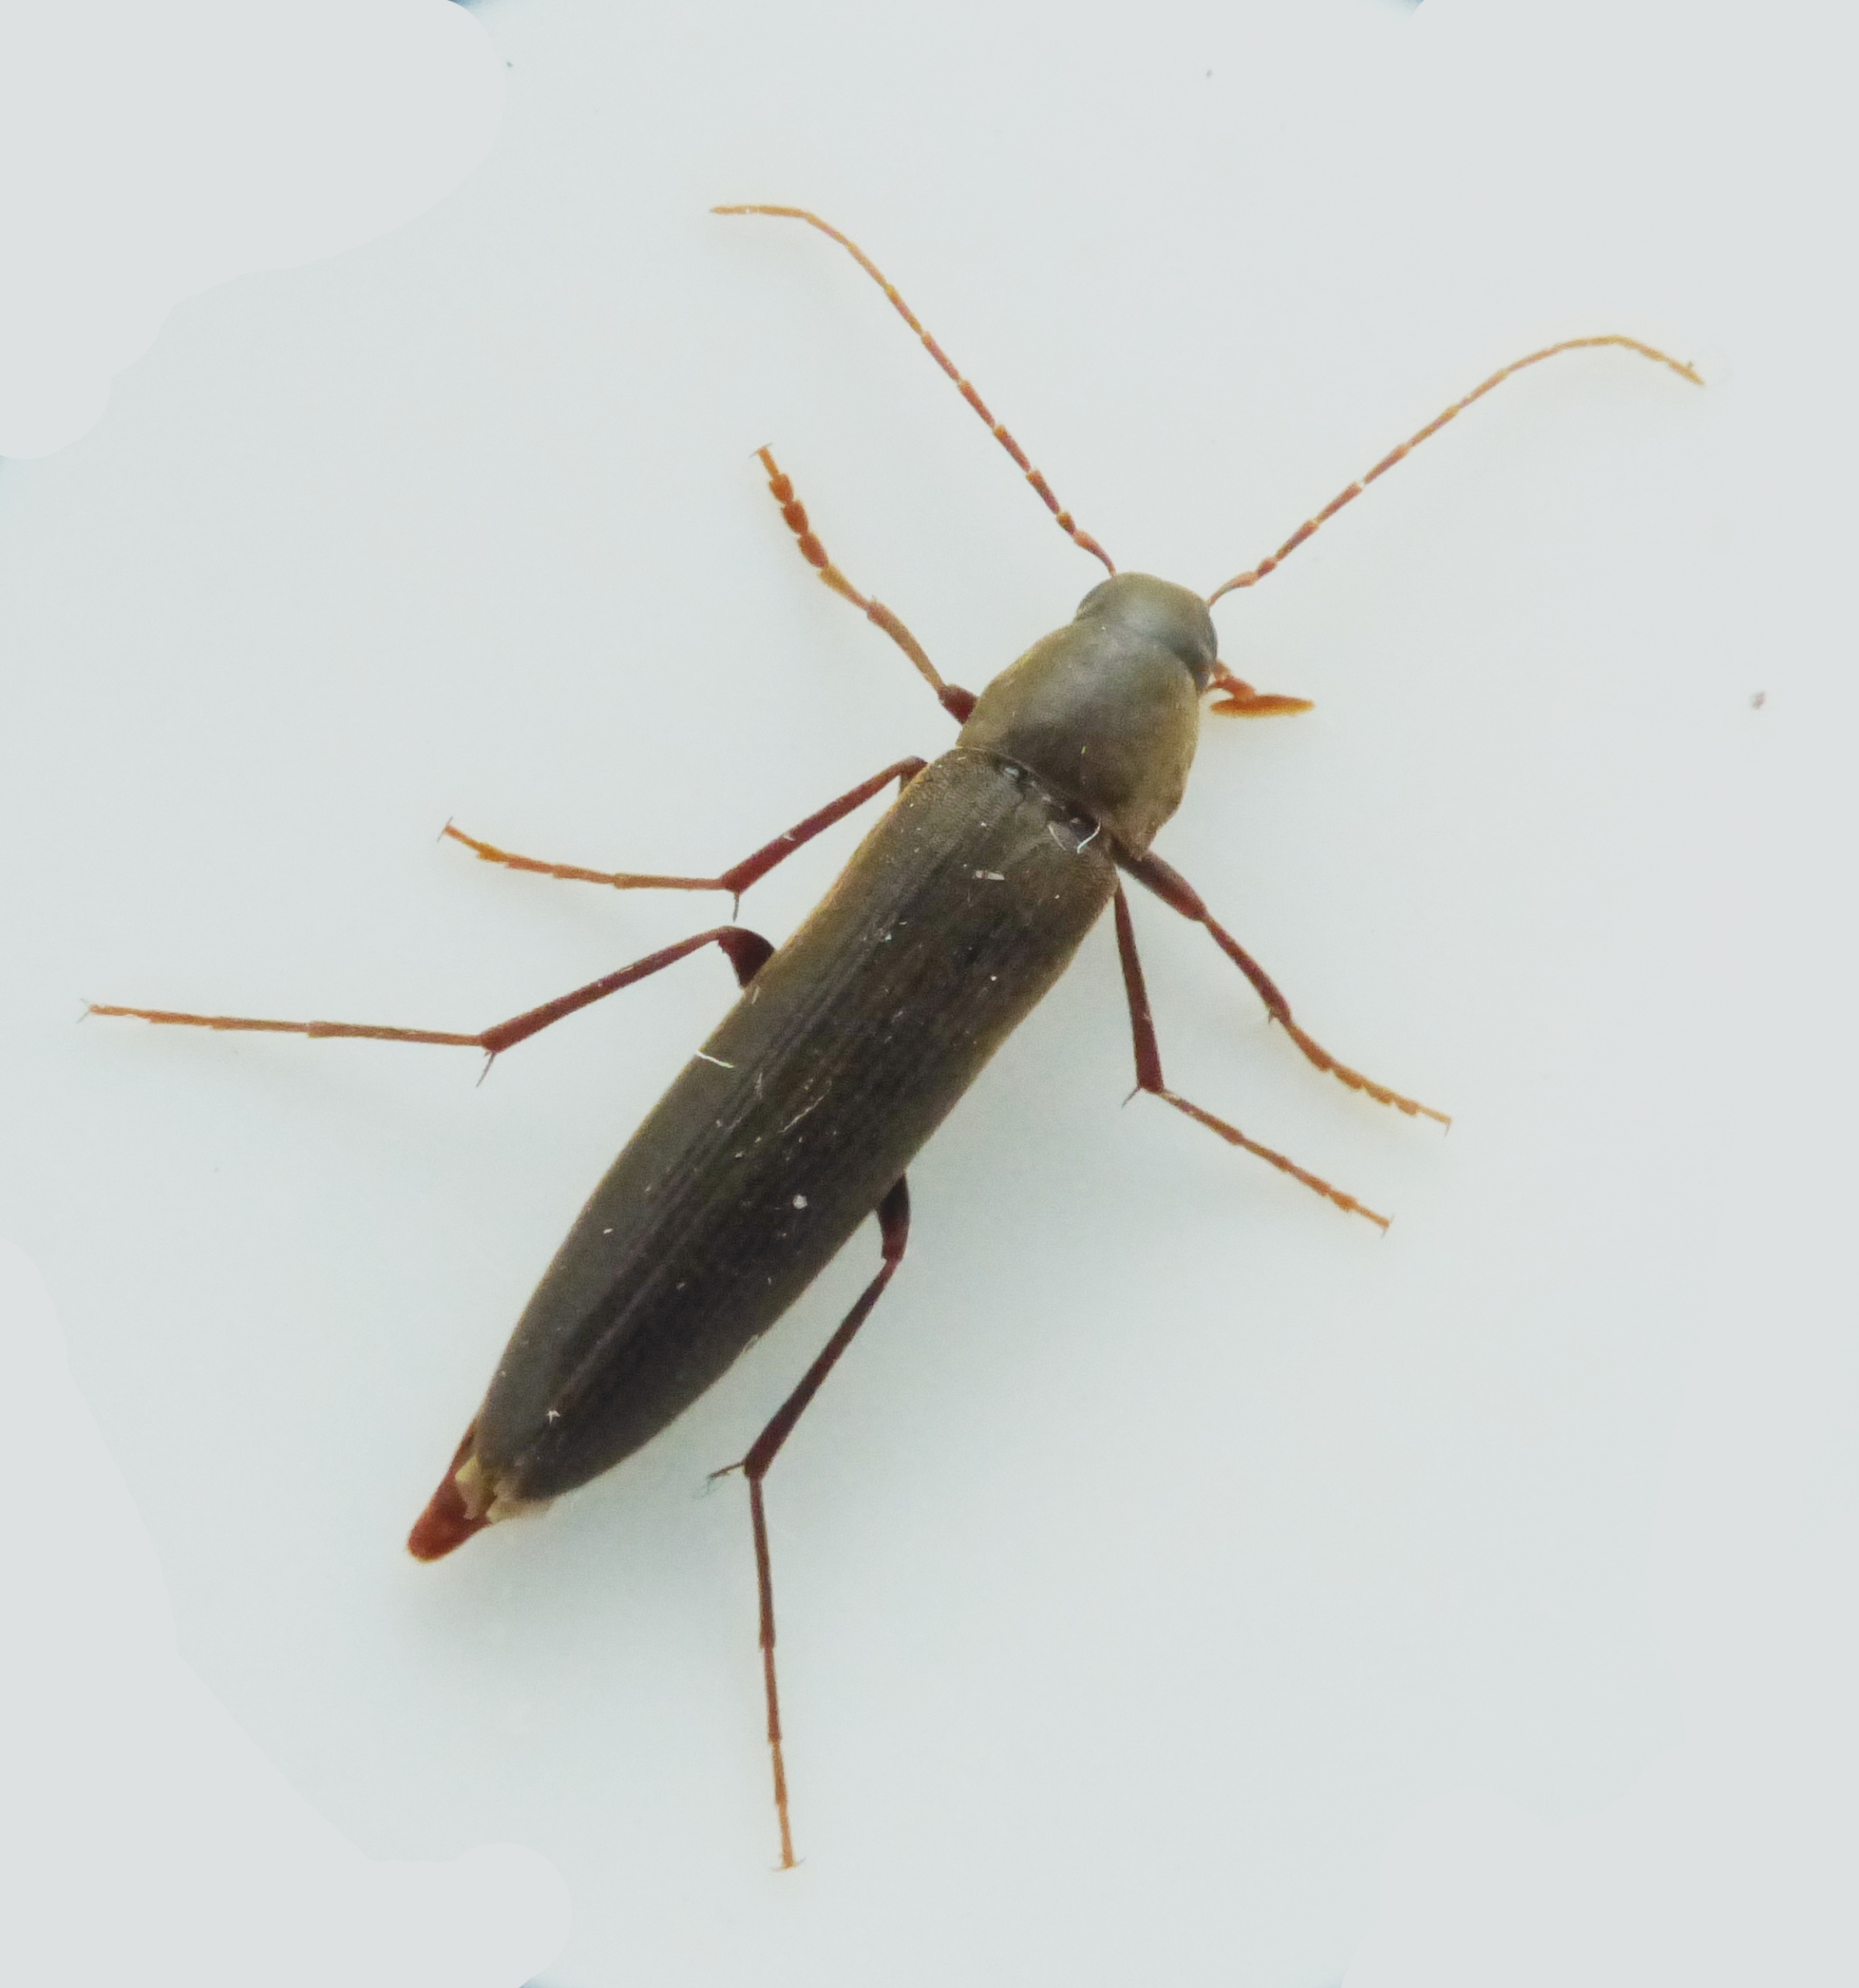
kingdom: Animalia
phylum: Arthropoda
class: Insecta
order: Coleoptera
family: Melandryidae
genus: Serropalpus
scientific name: Serropalpus barbatus
